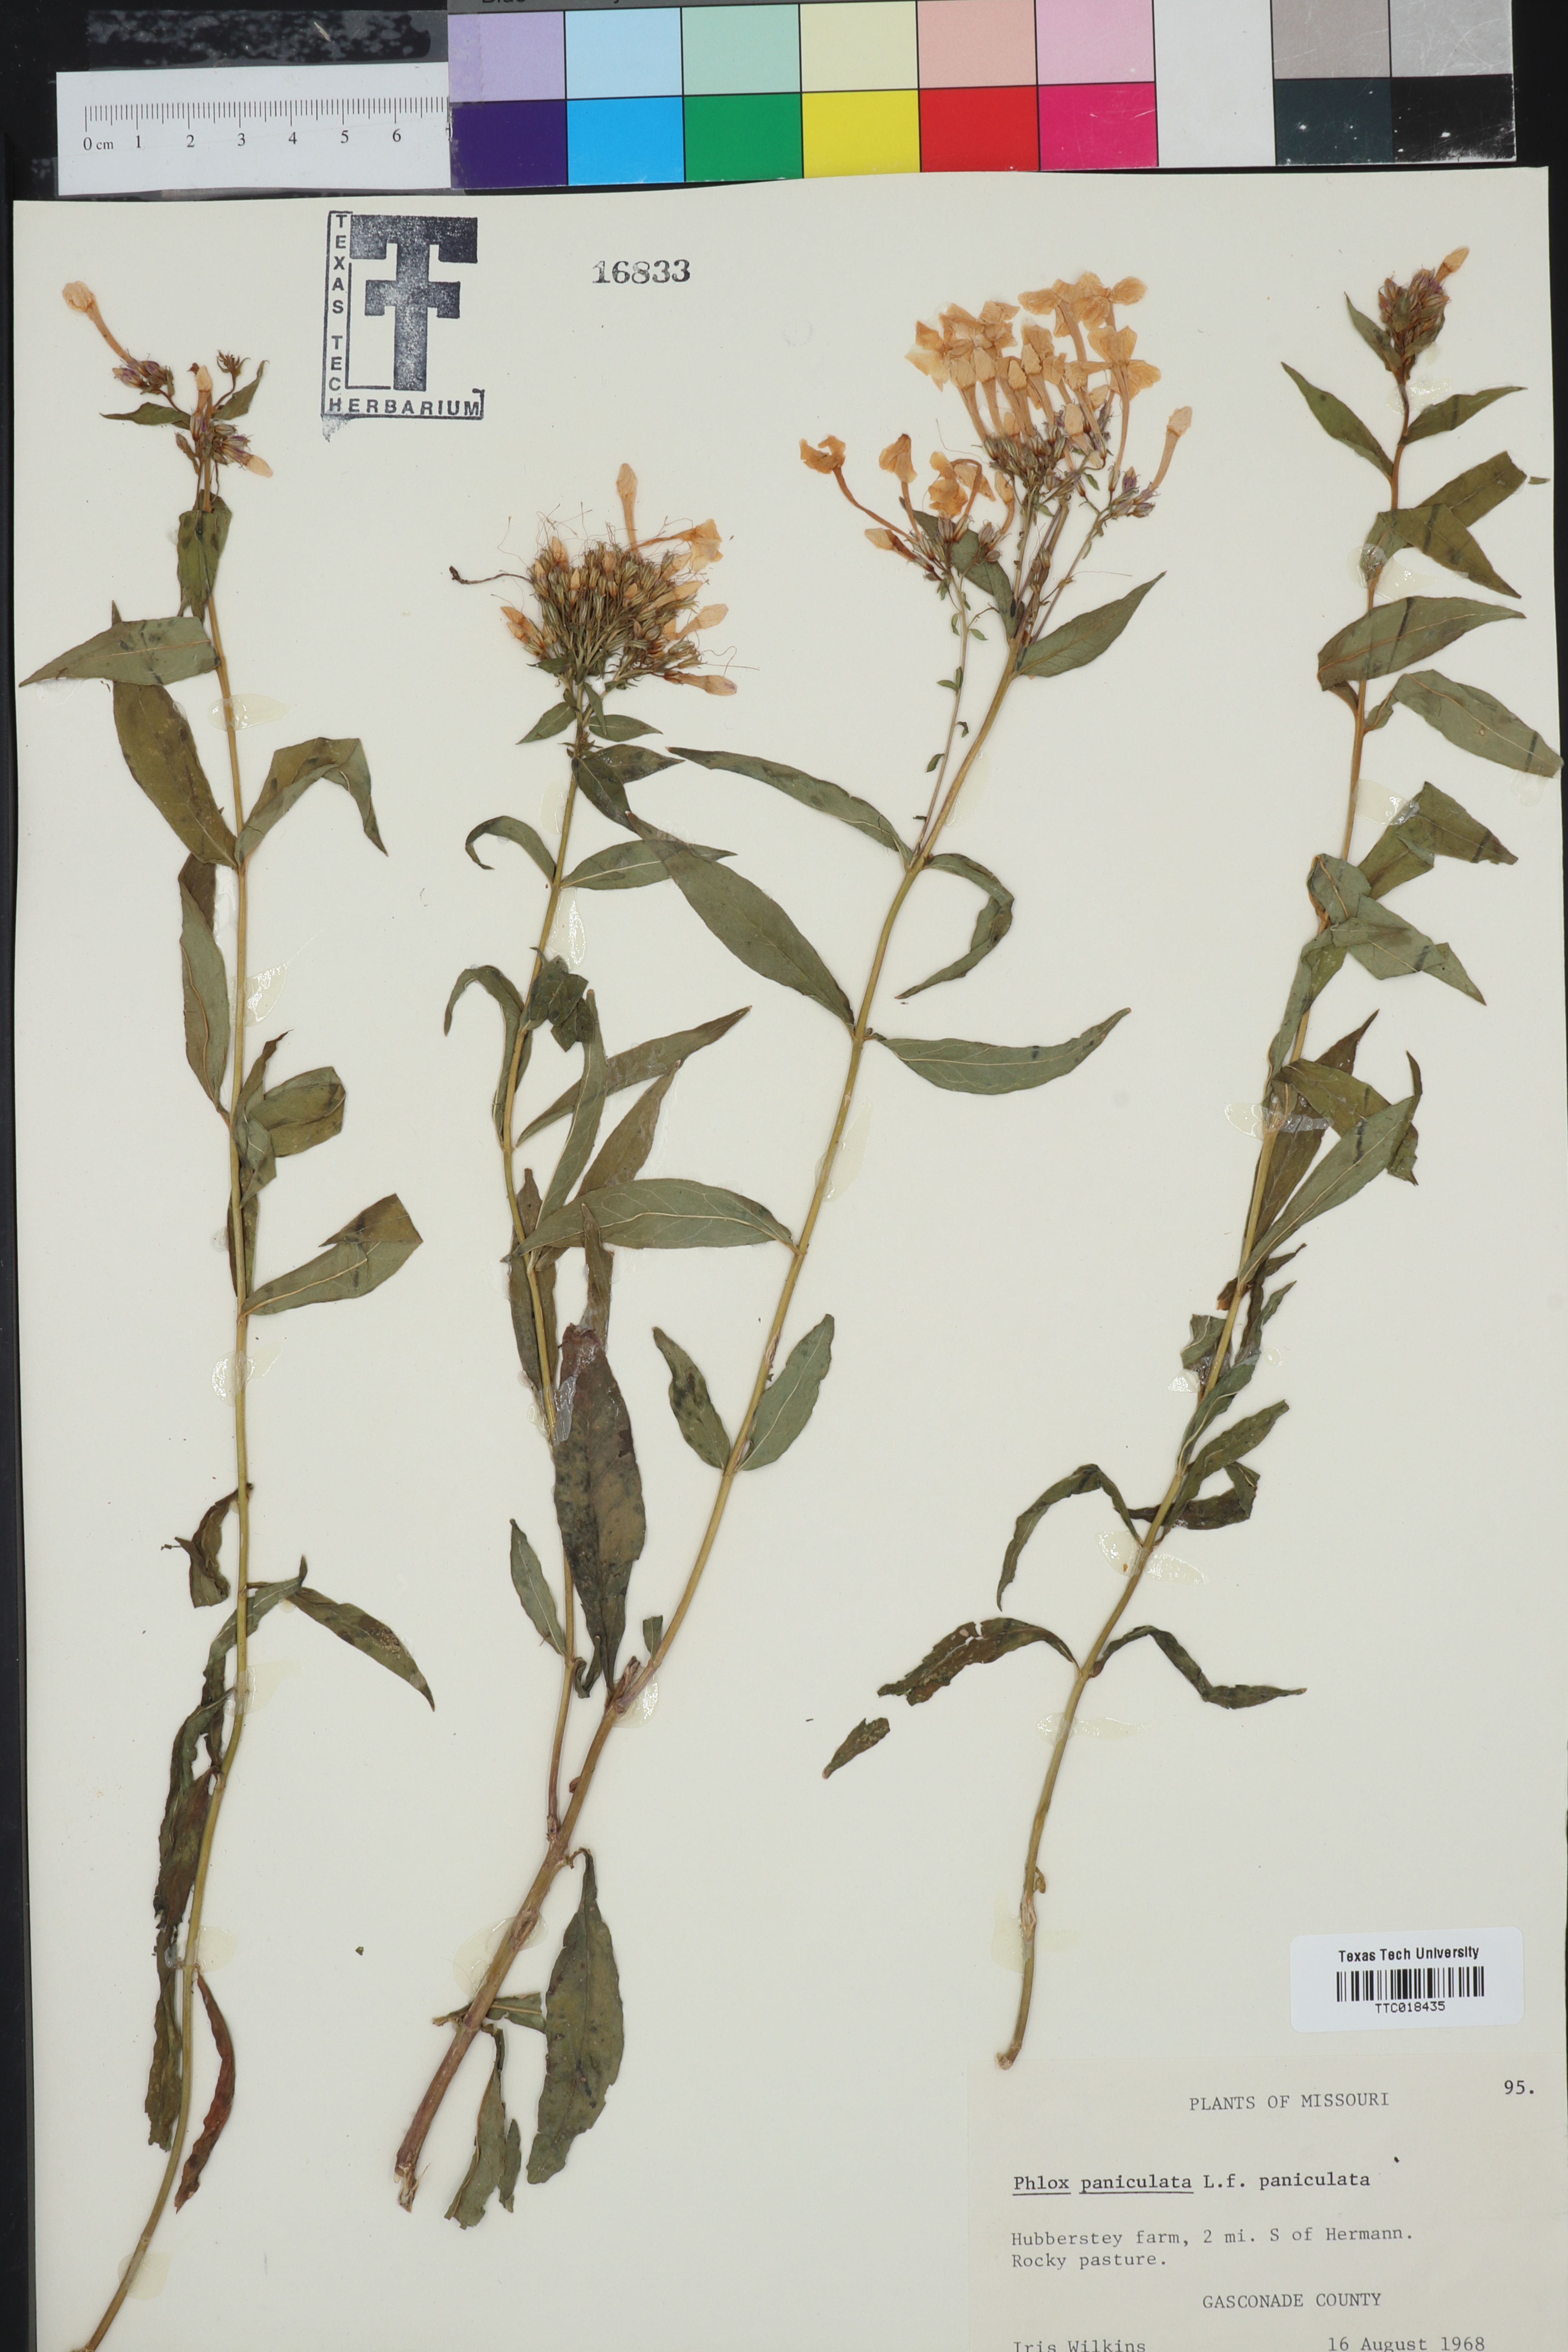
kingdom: Plantae
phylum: Tracheophyta
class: Magnoliopsida
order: Ericales
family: Polemoniaceae
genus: Phlox
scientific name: Phlox paniculata
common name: Fall phlox
